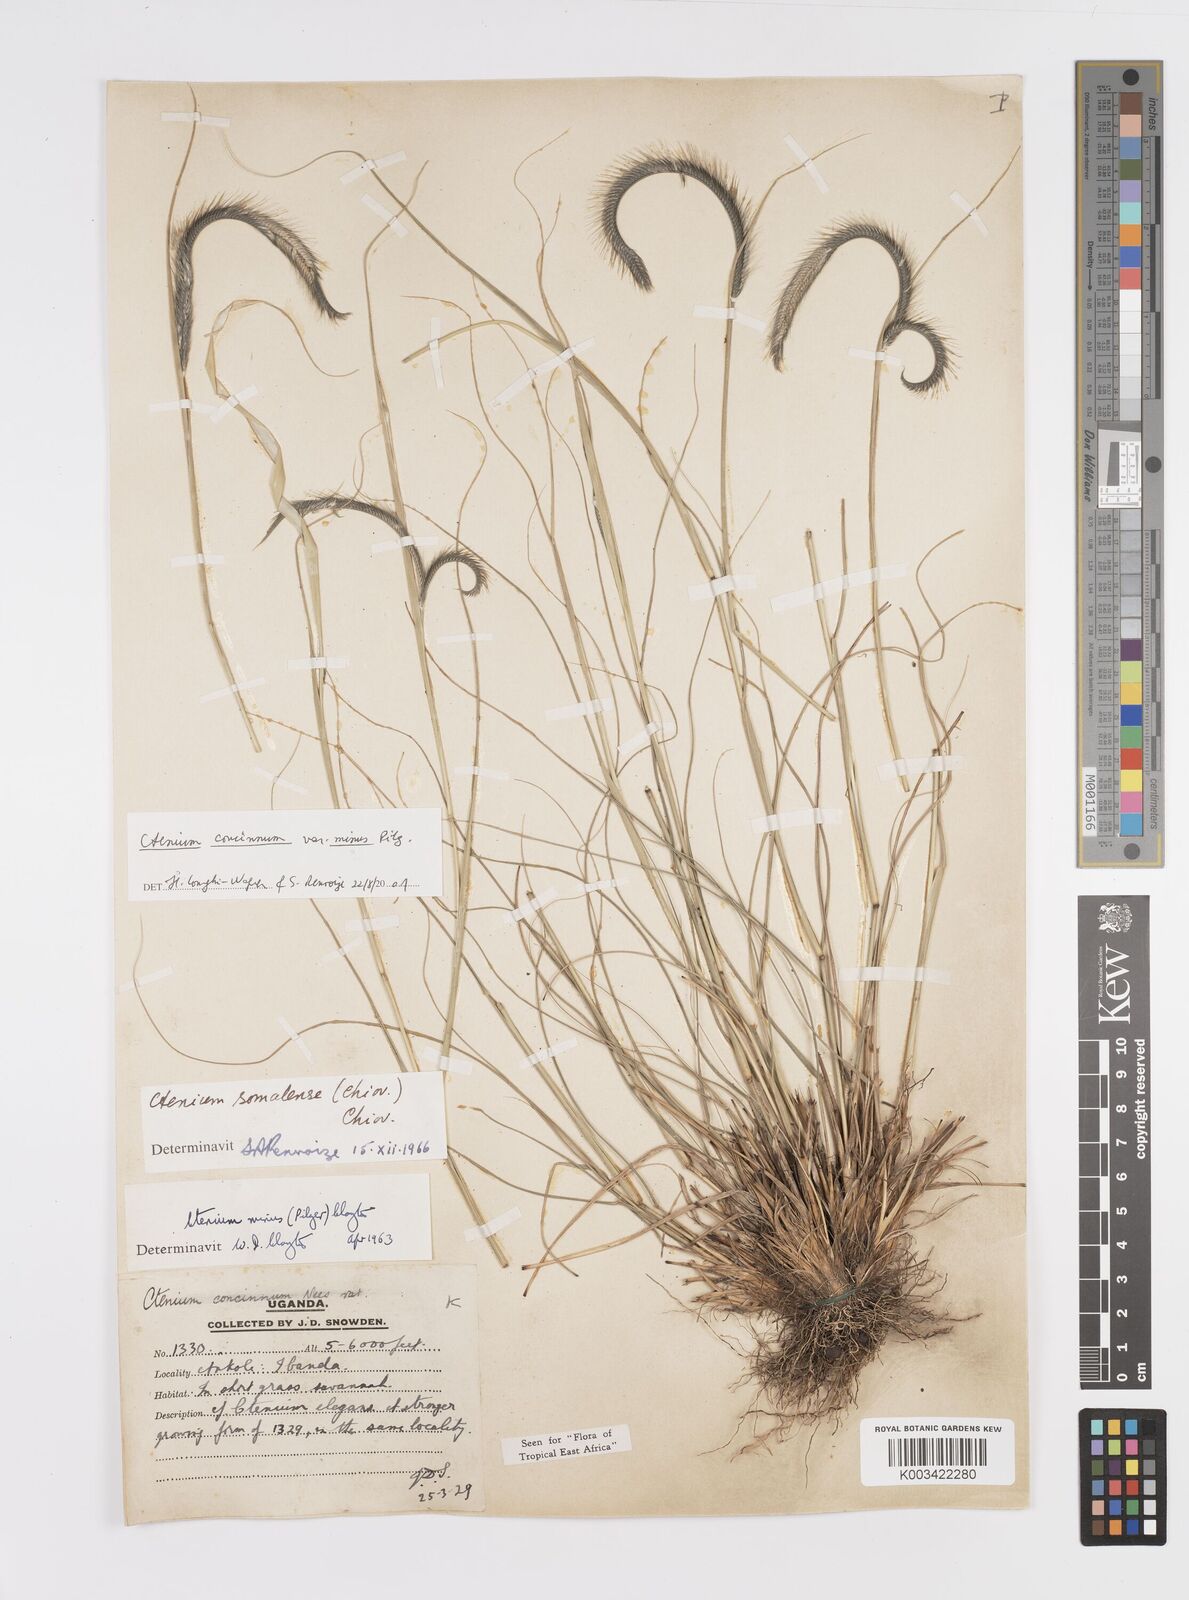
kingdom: Plantae
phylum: Tracheophyta
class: Liliopsida
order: Poales
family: Poaceae
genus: Ctenium
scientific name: Ctenium concinnum
